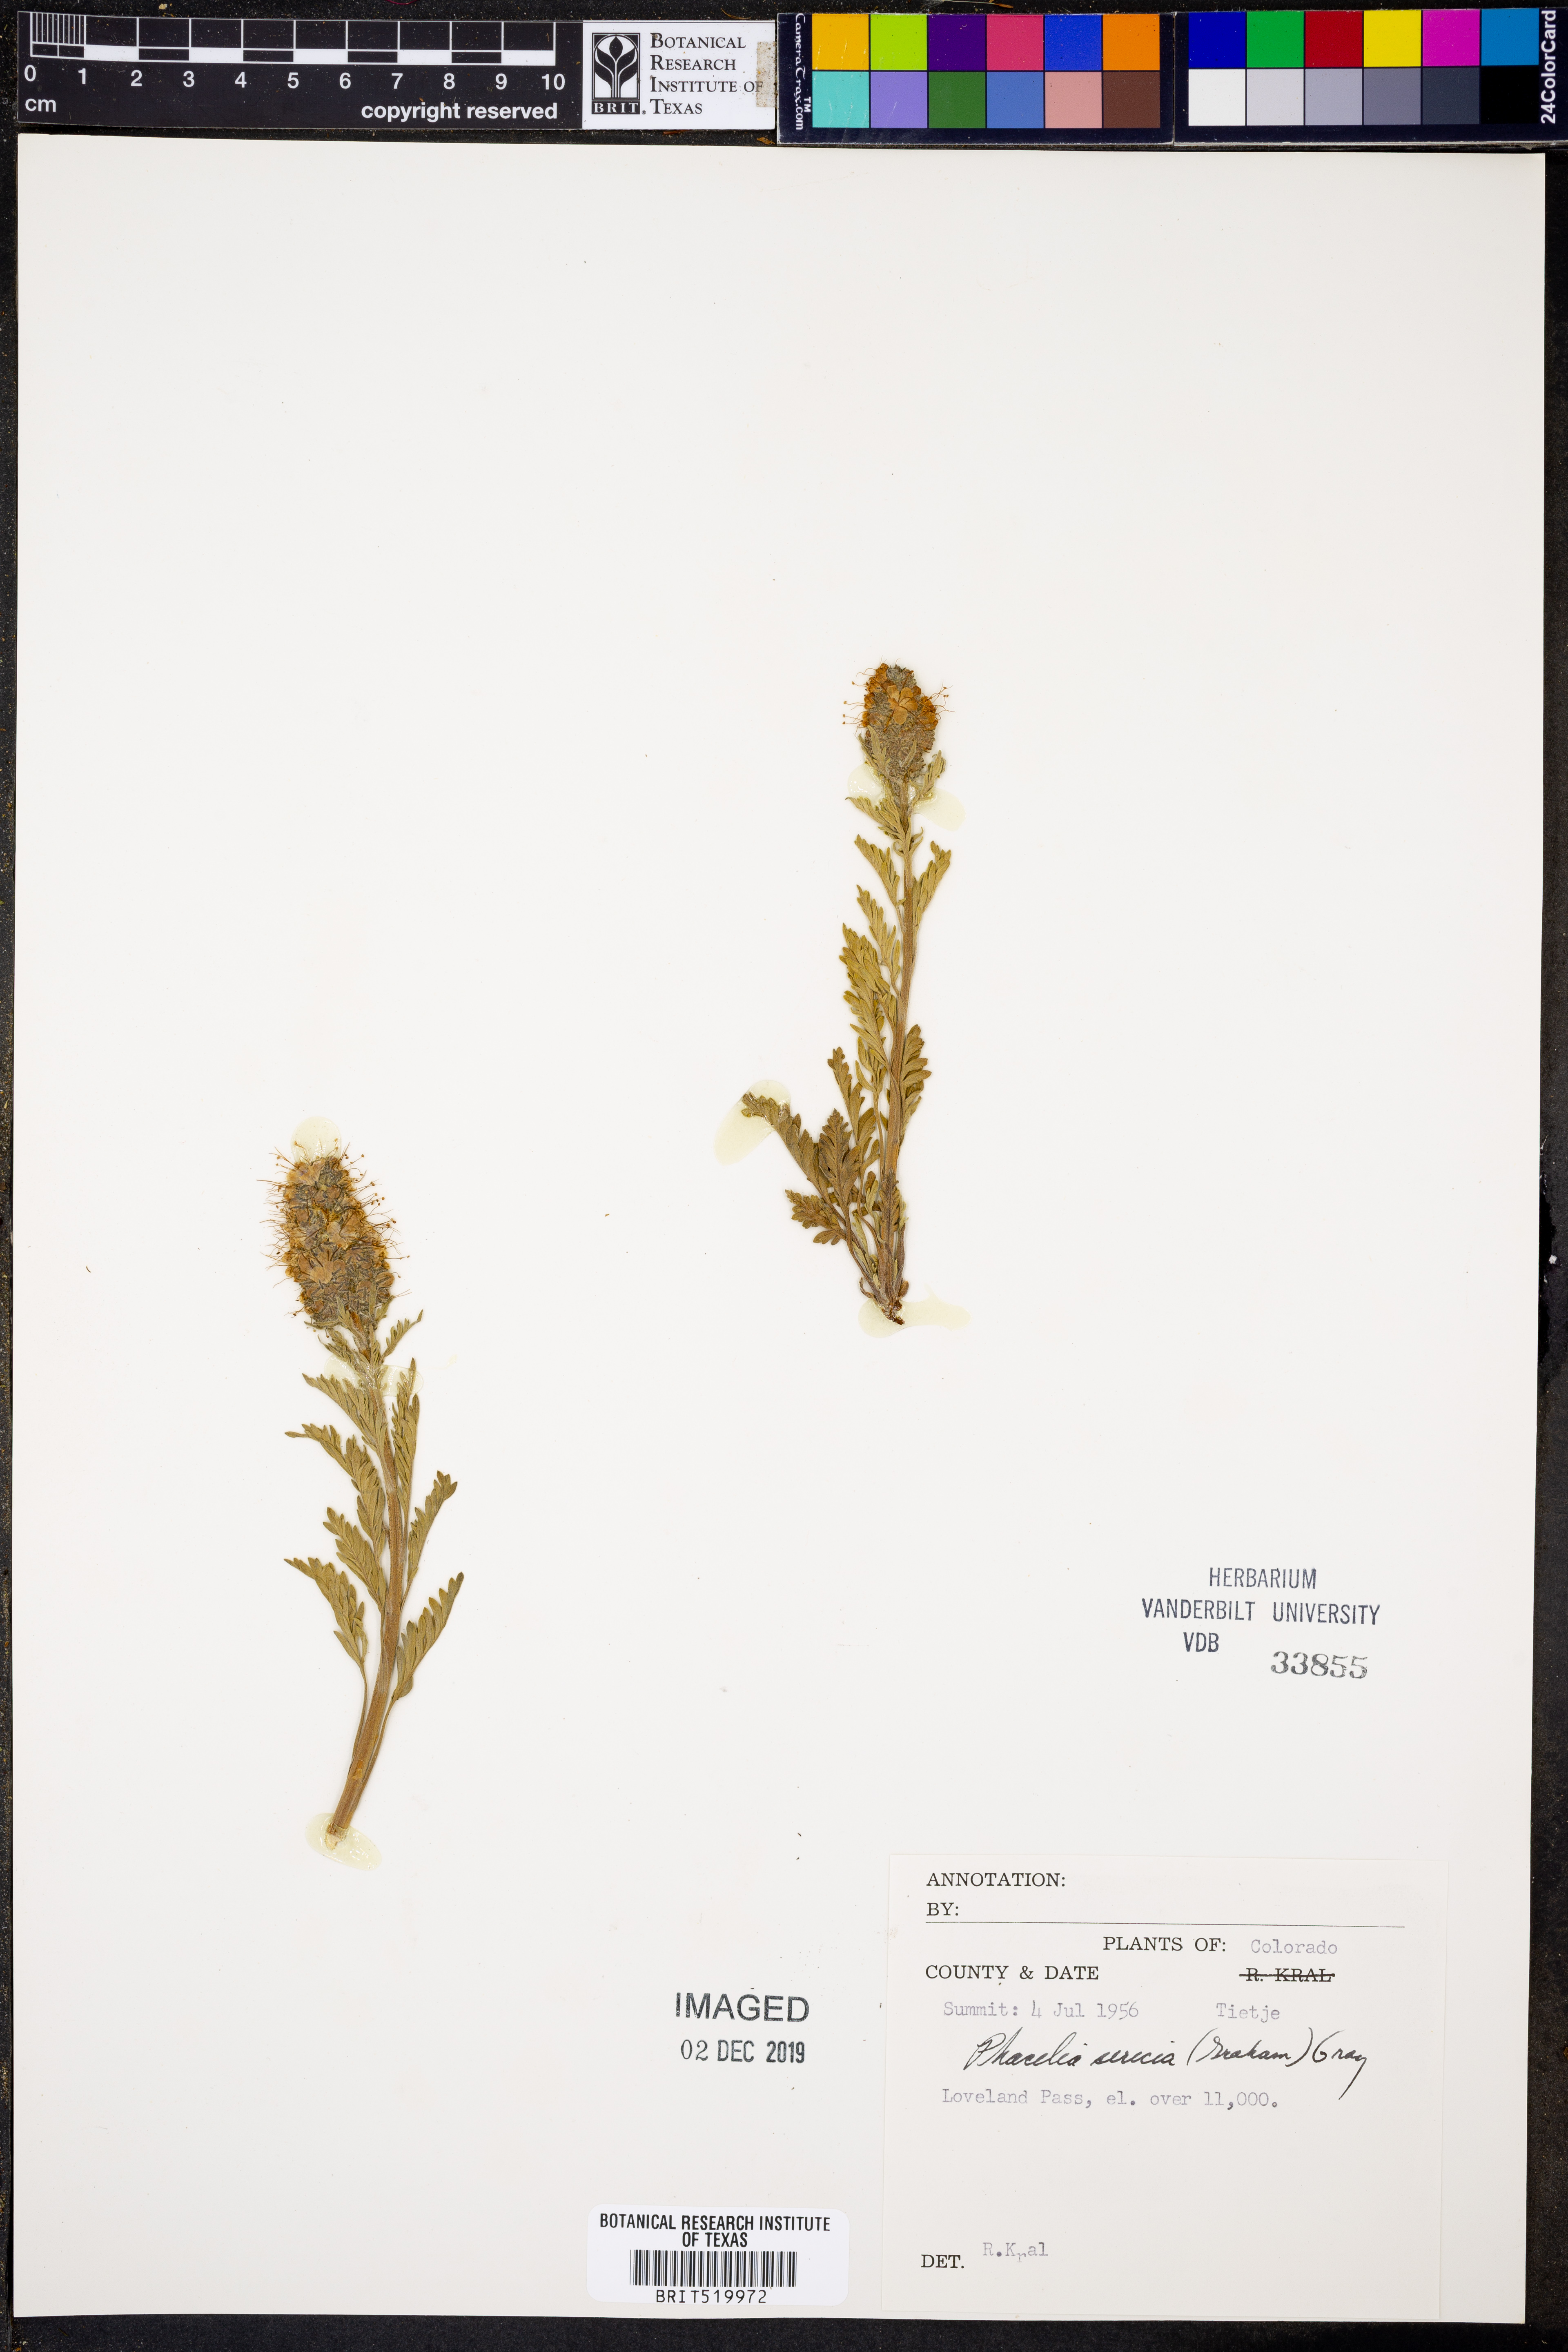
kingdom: Plantae
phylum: Tracheophyta
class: Magnoliopsida
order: Boraginales
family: Hydrophyllaceae
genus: Phacelia
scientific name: Phacelia sericea
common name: Silky phacelia
